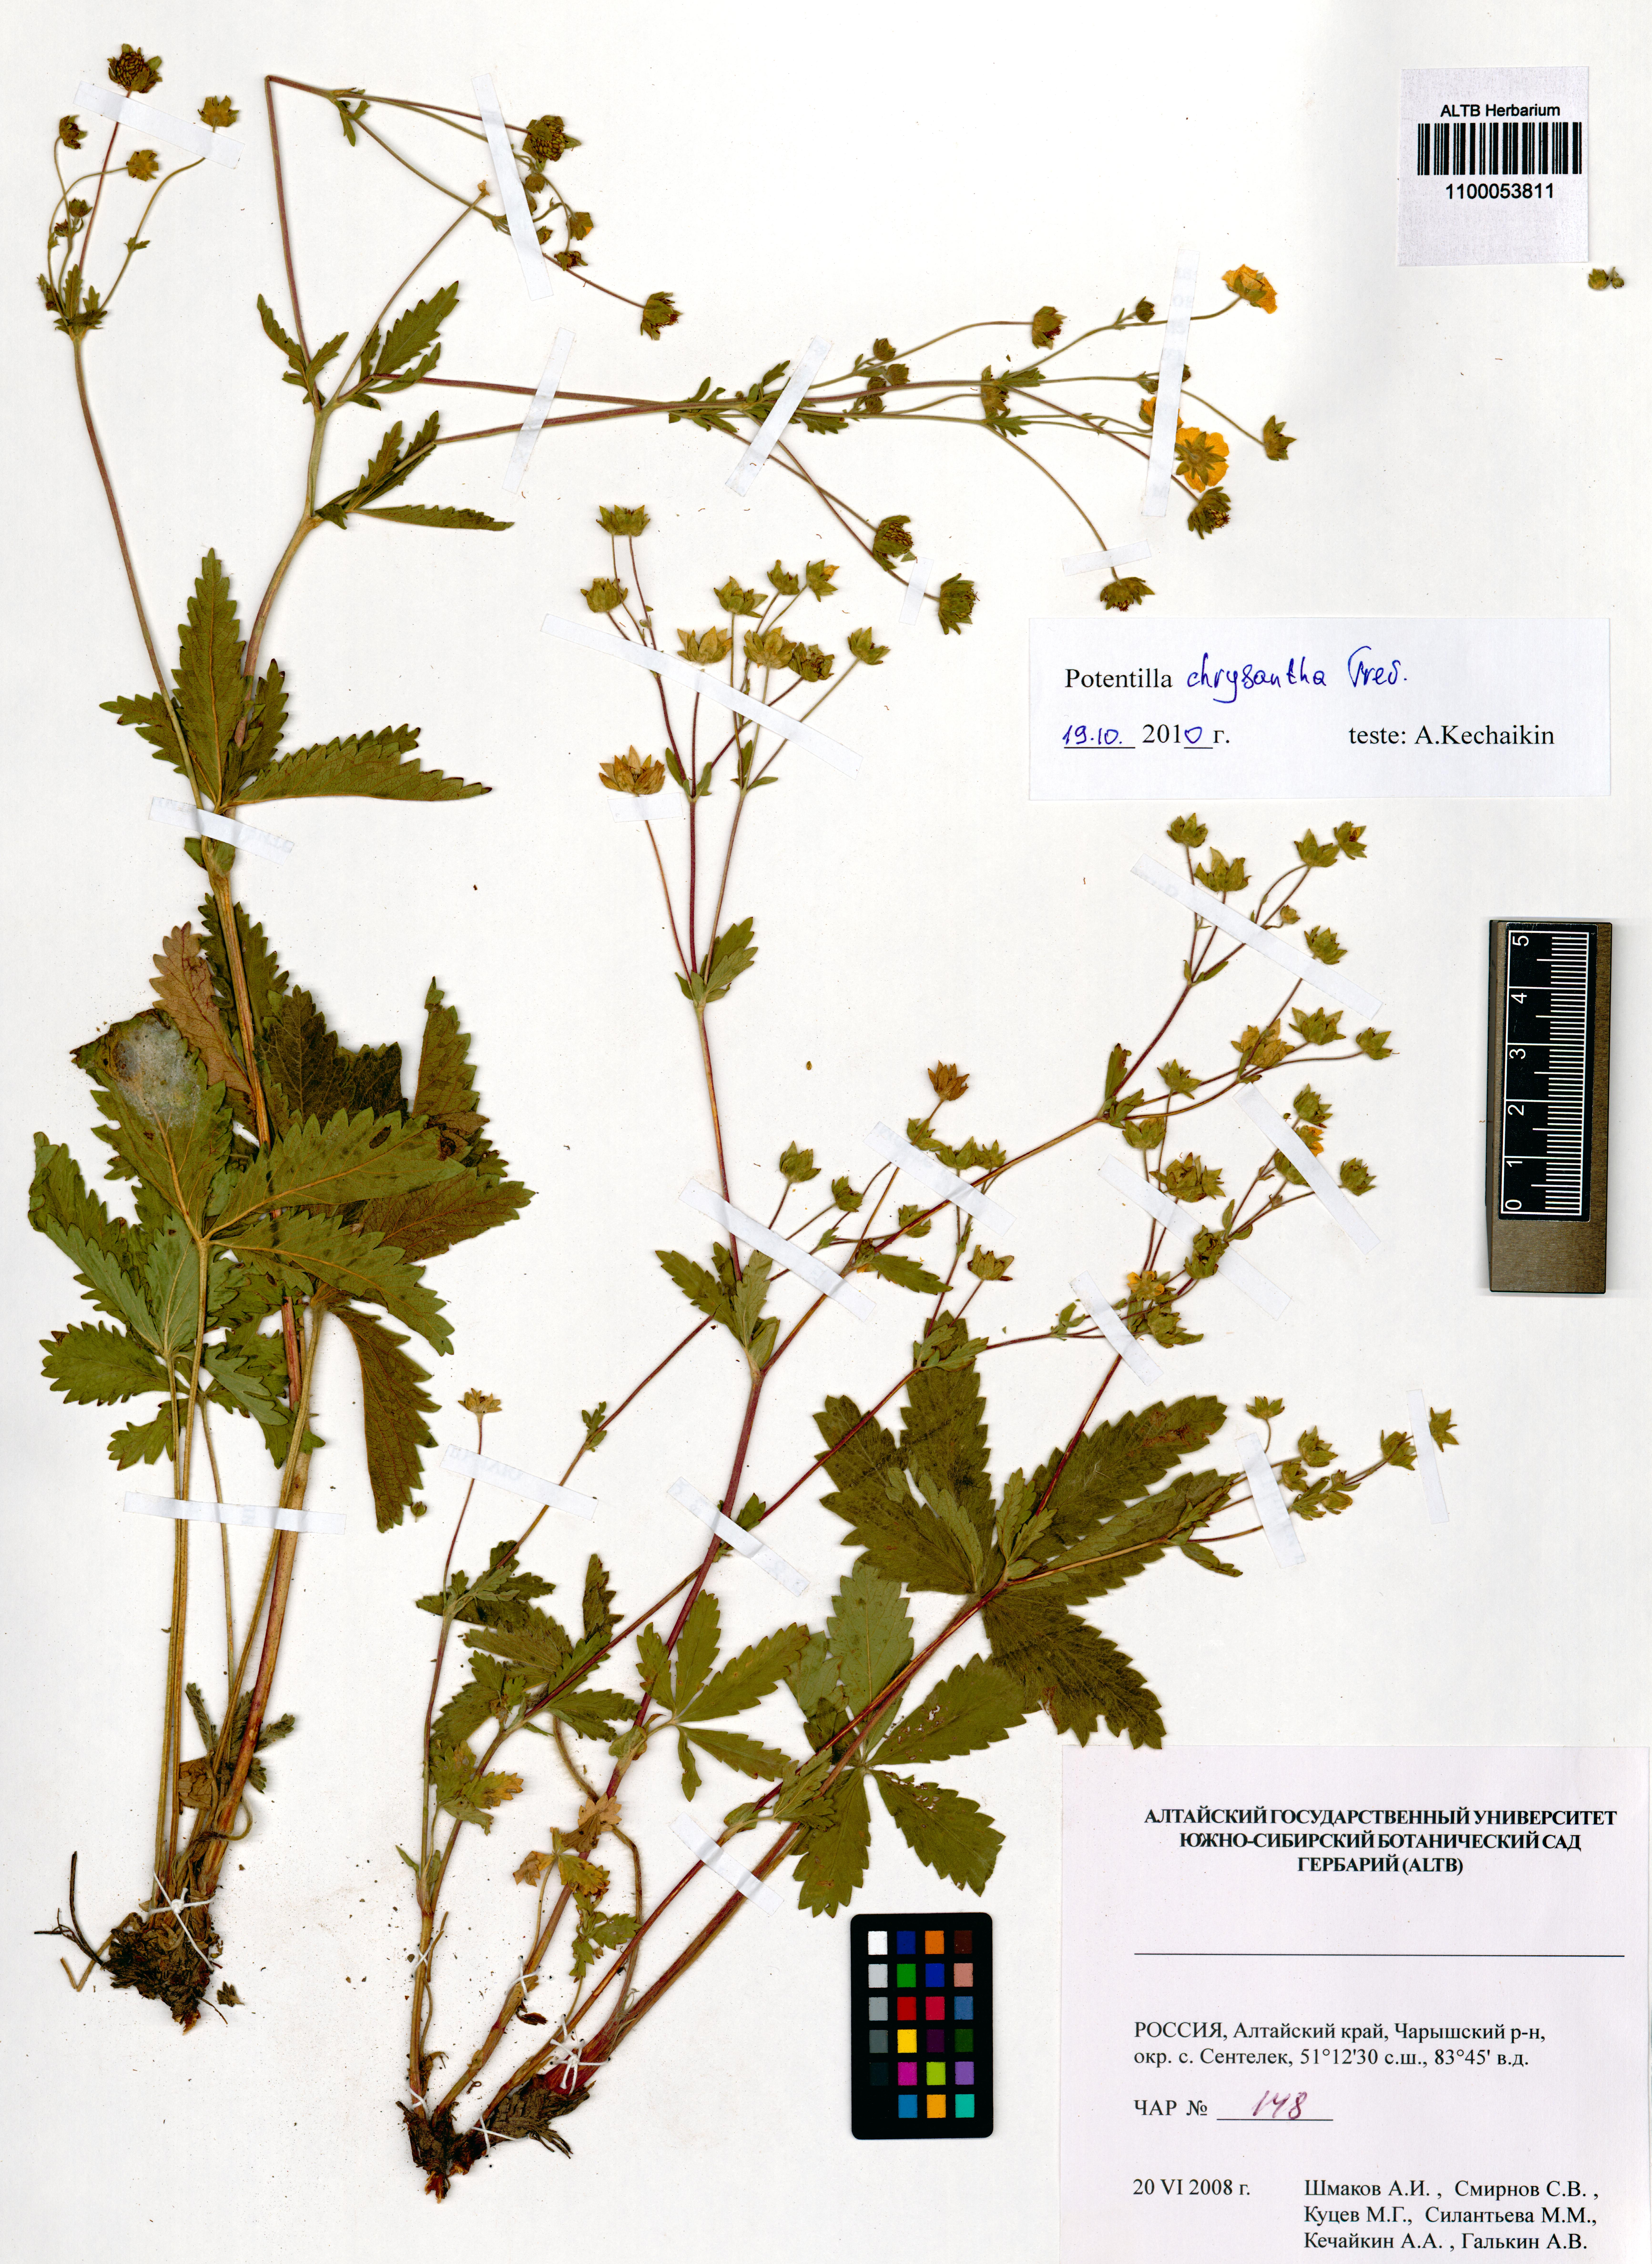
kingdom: Plantae
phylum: Tracheophyta
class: Magnoliopsida
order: Rosales
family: Rosaceae
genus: Potentilla
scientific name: Potentilla chrysantha
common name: Thuringian cinquefoil
